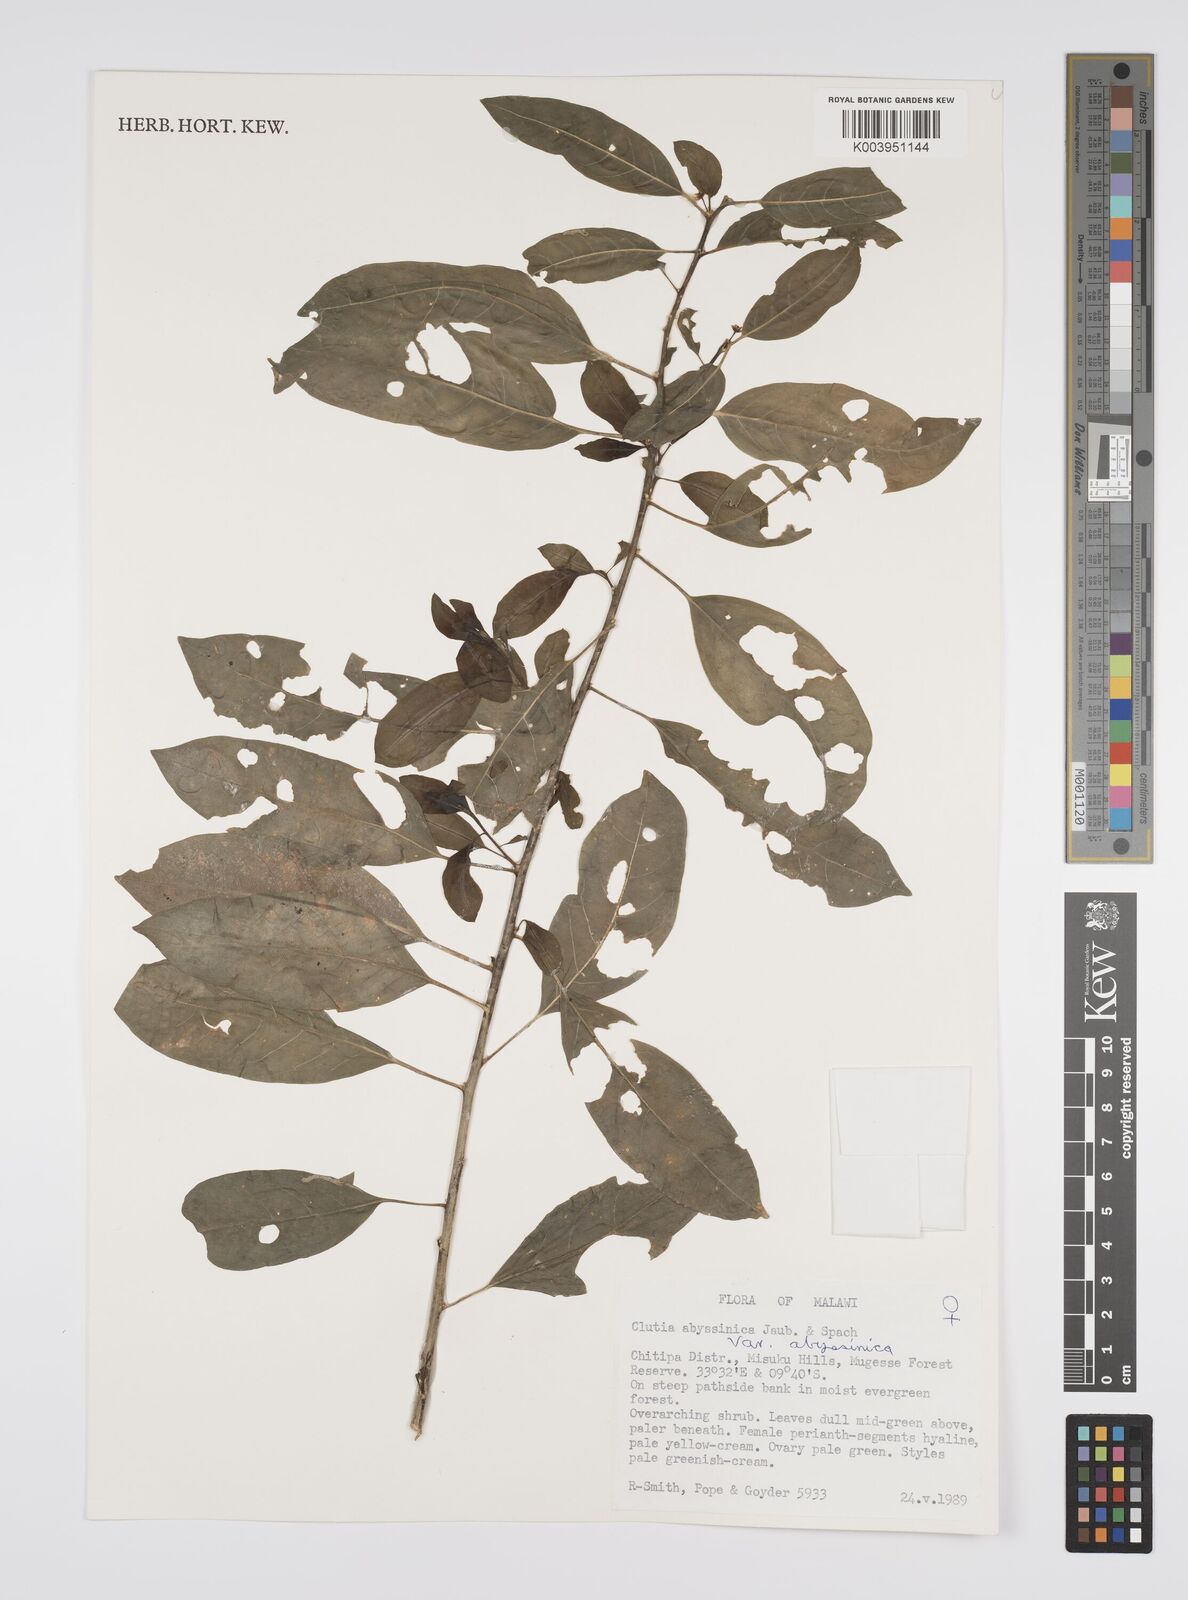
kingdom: Plantae
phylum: Tracheophyta
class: Magnoliopsida
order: Malpighiales
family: Peraceae
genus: Clutia
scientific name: Clutia abyssinica
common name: Large lightning bush
